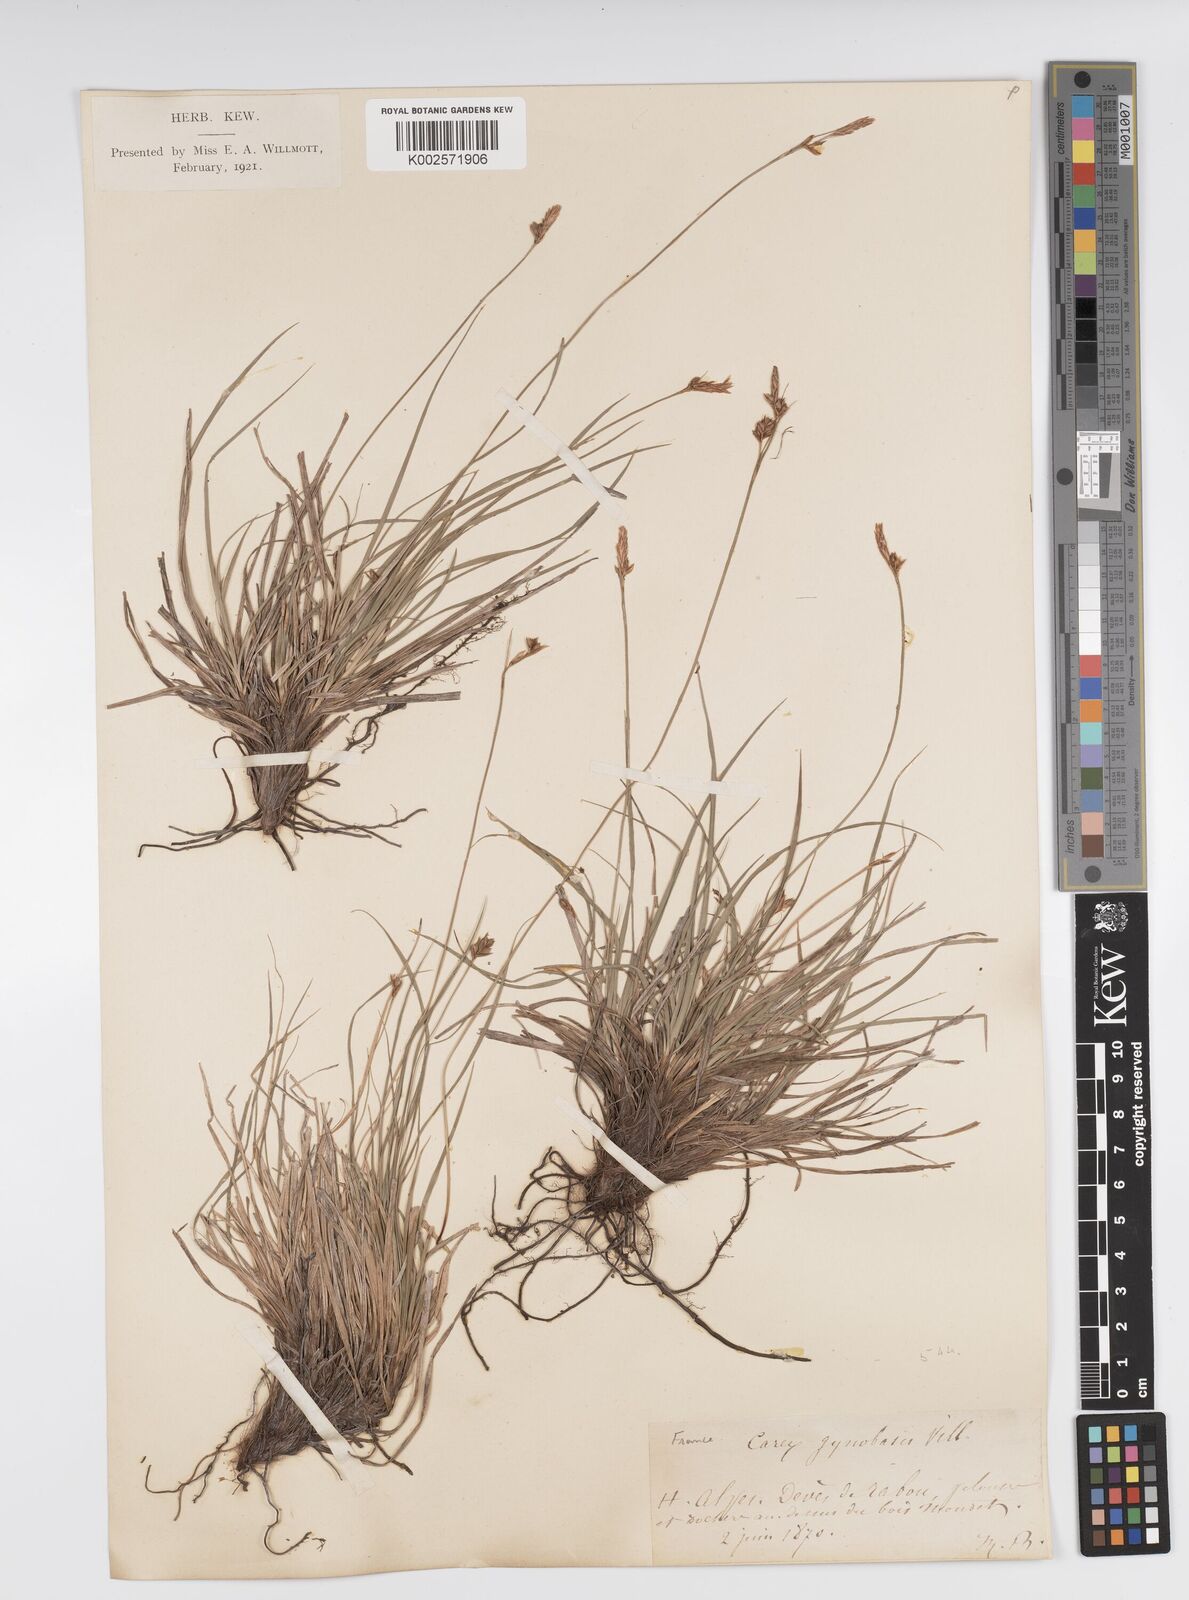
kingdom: Plantae
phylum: Tracheophyta
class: Liliopsida
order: Poales
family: Cyperaceae
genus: Carex
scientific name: Carex halleriana
